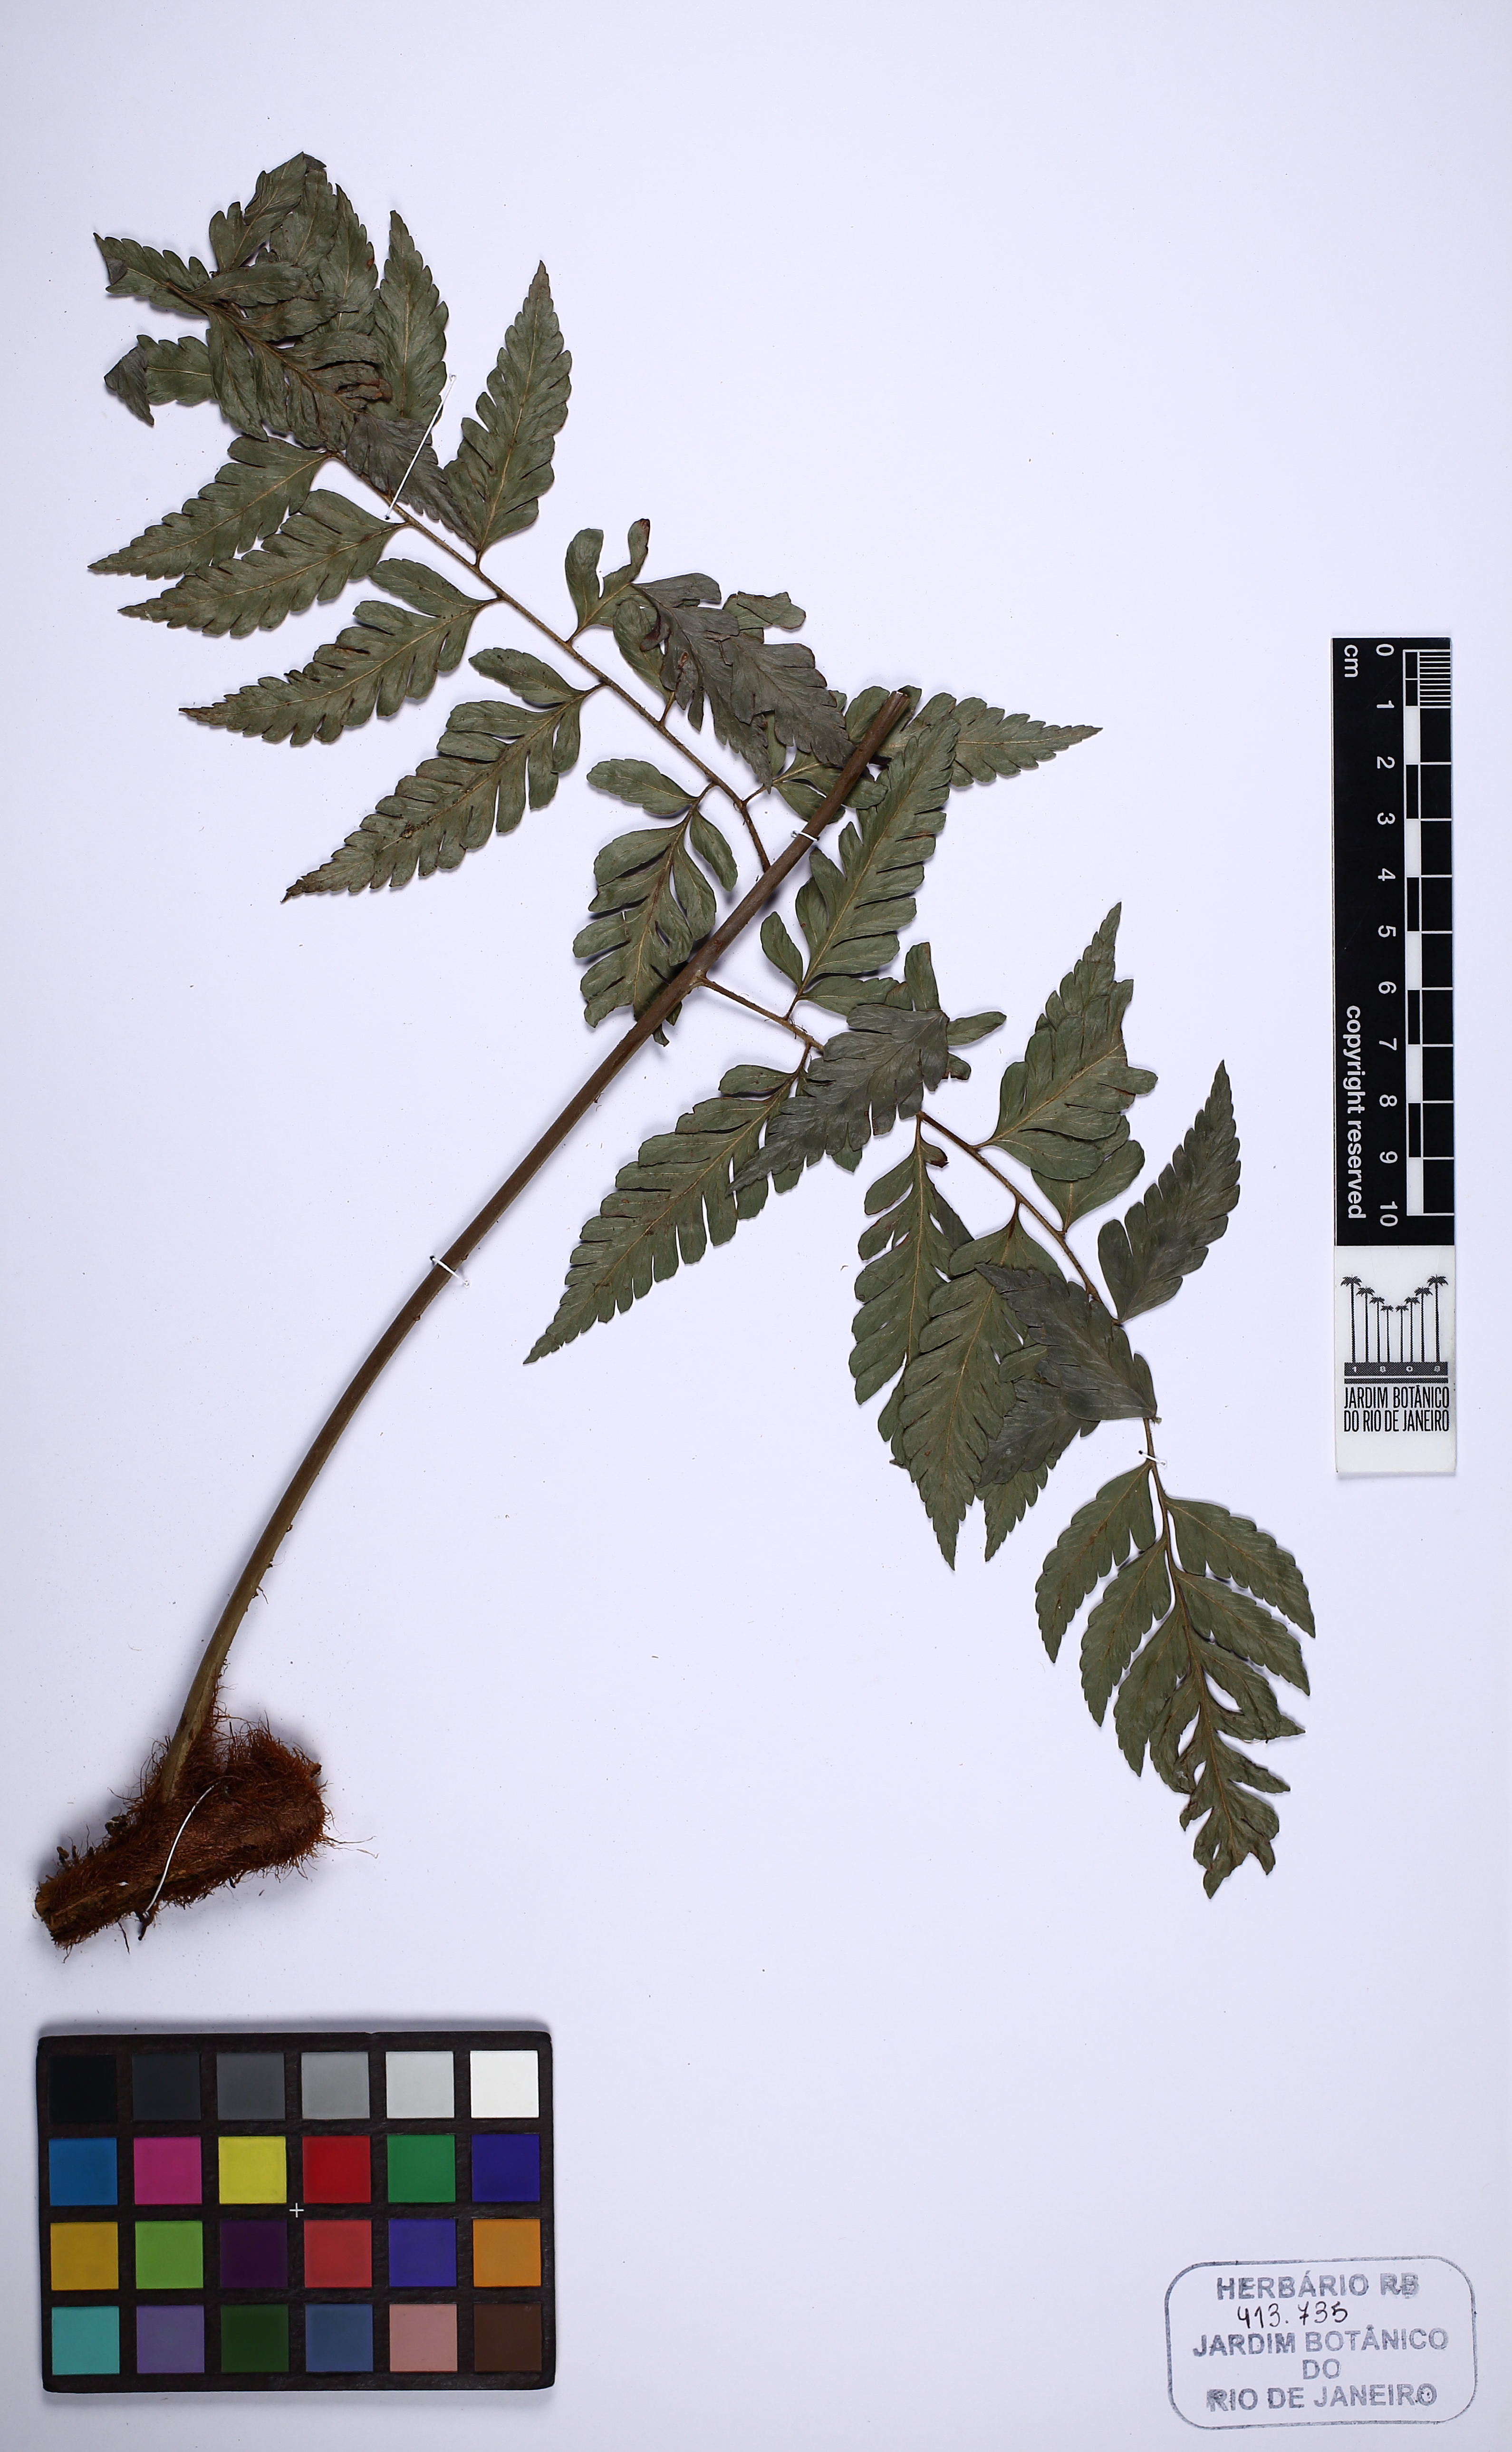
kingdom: Plantae
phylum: Tracheophyta
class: Polypodiopsida
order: Polypodiales
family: Dryopteridaceae
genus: Polybotrya
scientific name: Polybotrya speciosa
